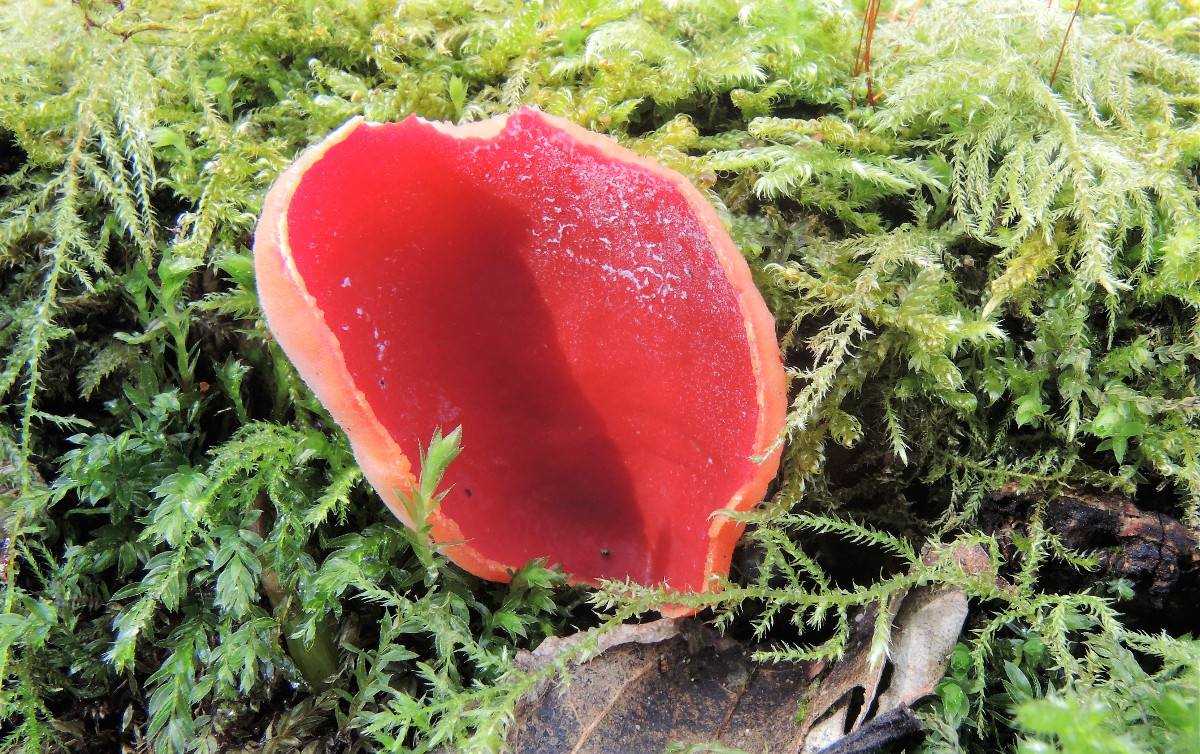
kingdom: Fungi
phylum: Ascomycota
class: Pezizomycetes
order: Pezizales
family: Sarcoscyphaceae
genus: Sarcoscypha
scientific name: Sarcoscypha austriaca
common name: krølhåret pragtbæger
